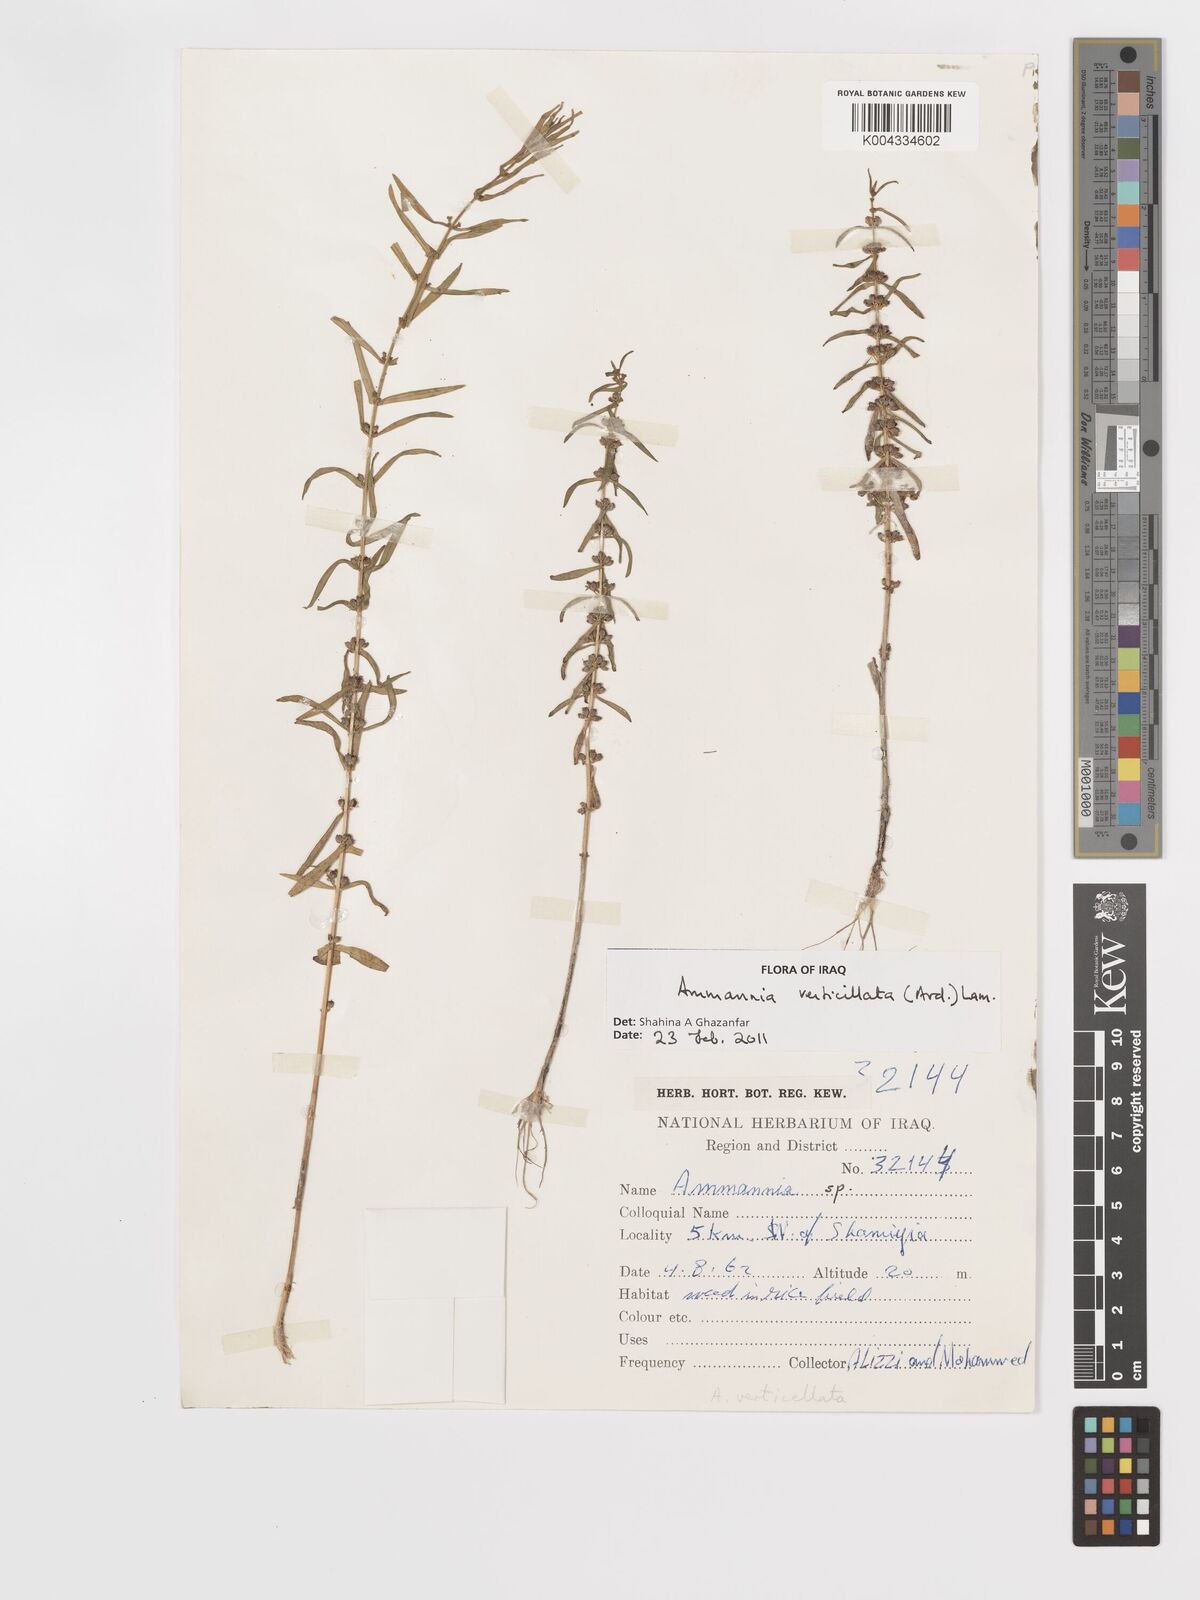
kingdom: Plantae
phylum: Tracheophyta
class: Magnoliopsida
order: Myrtales
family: Lythraceae
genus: Ammannia
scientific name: Ammannia baccifera
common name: Blistering ammania
